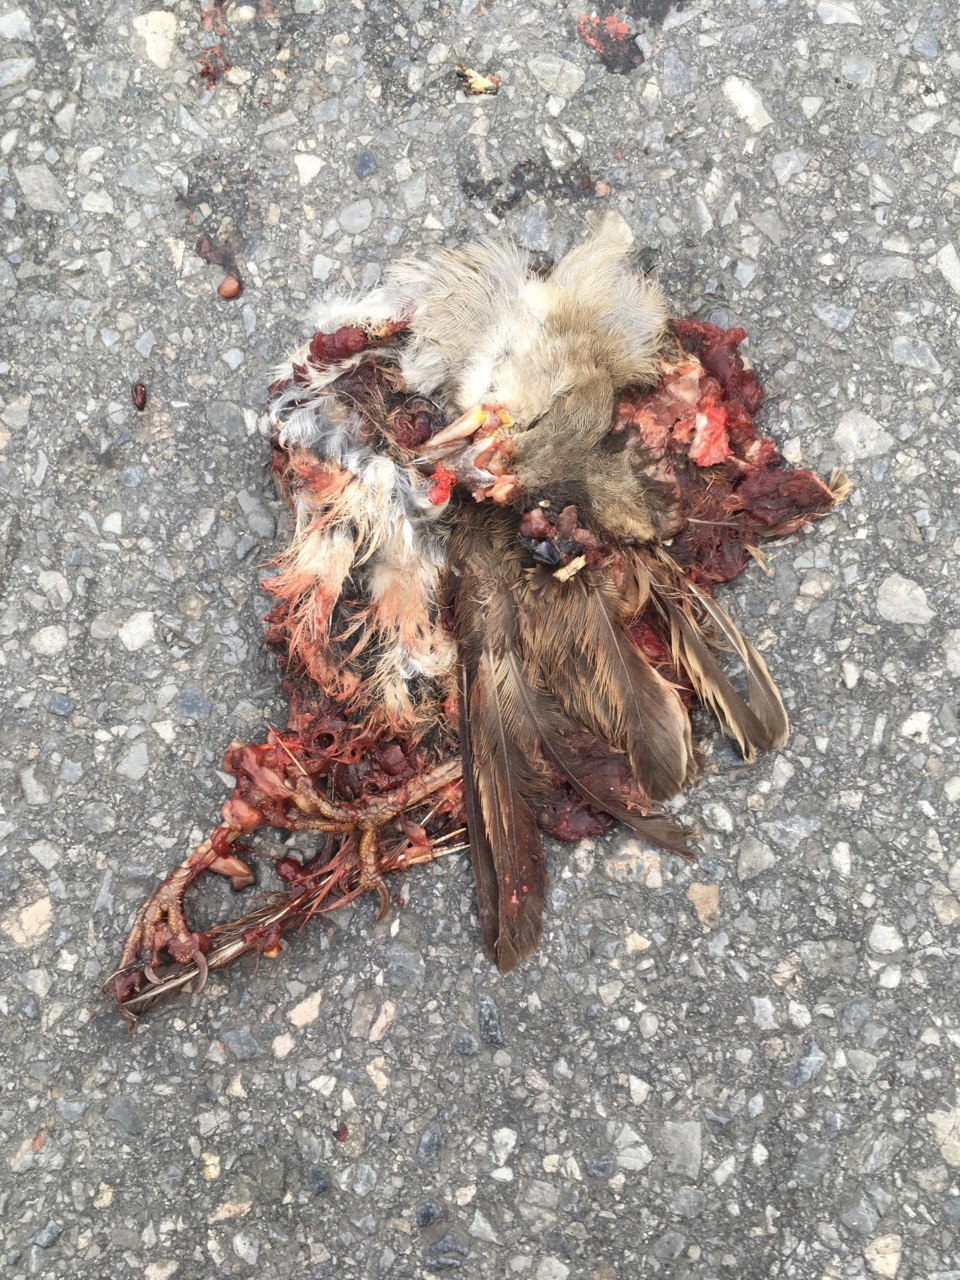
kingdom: Animalia
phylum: Chordata
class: Aves
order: Passeriformes
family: Passeridae
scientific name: Passeridae
